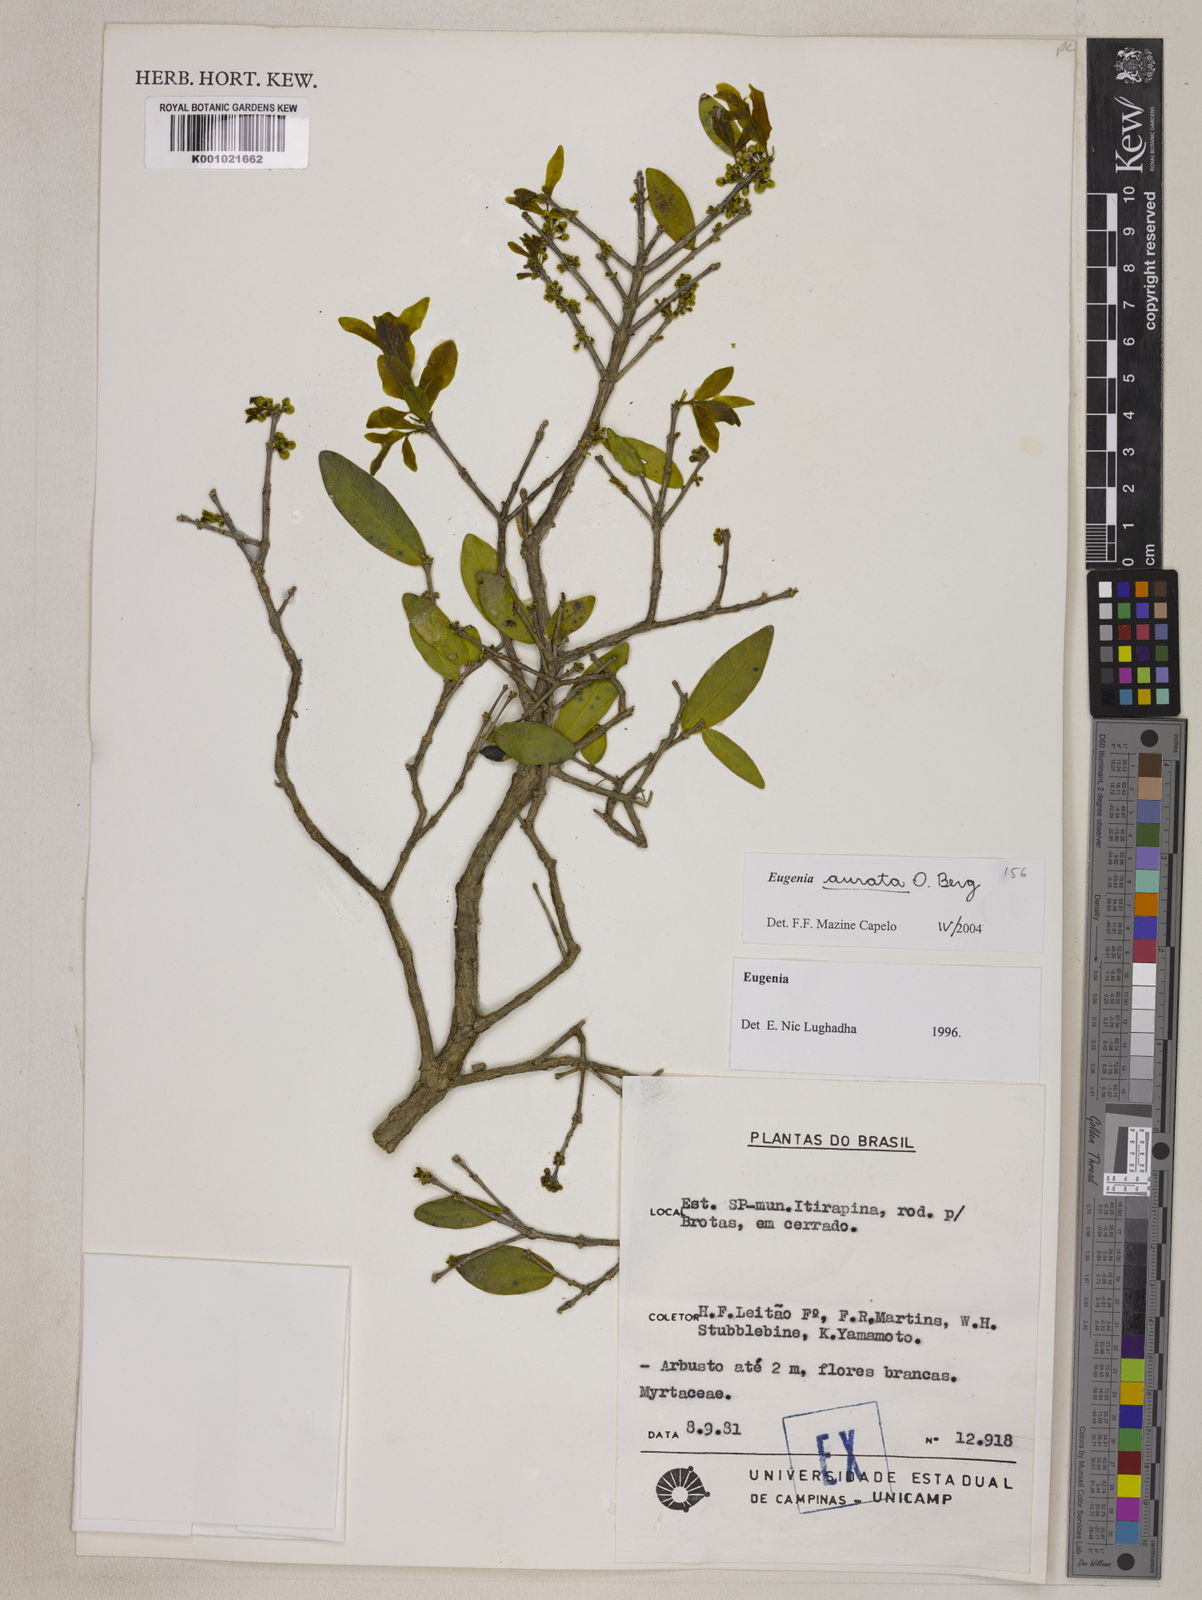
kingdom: Plantae
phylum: Tracheophyta
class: Magnoliopsida
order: Myrtales
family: Myrtaceae
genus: Eugenia
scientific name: Eugenia aurata
